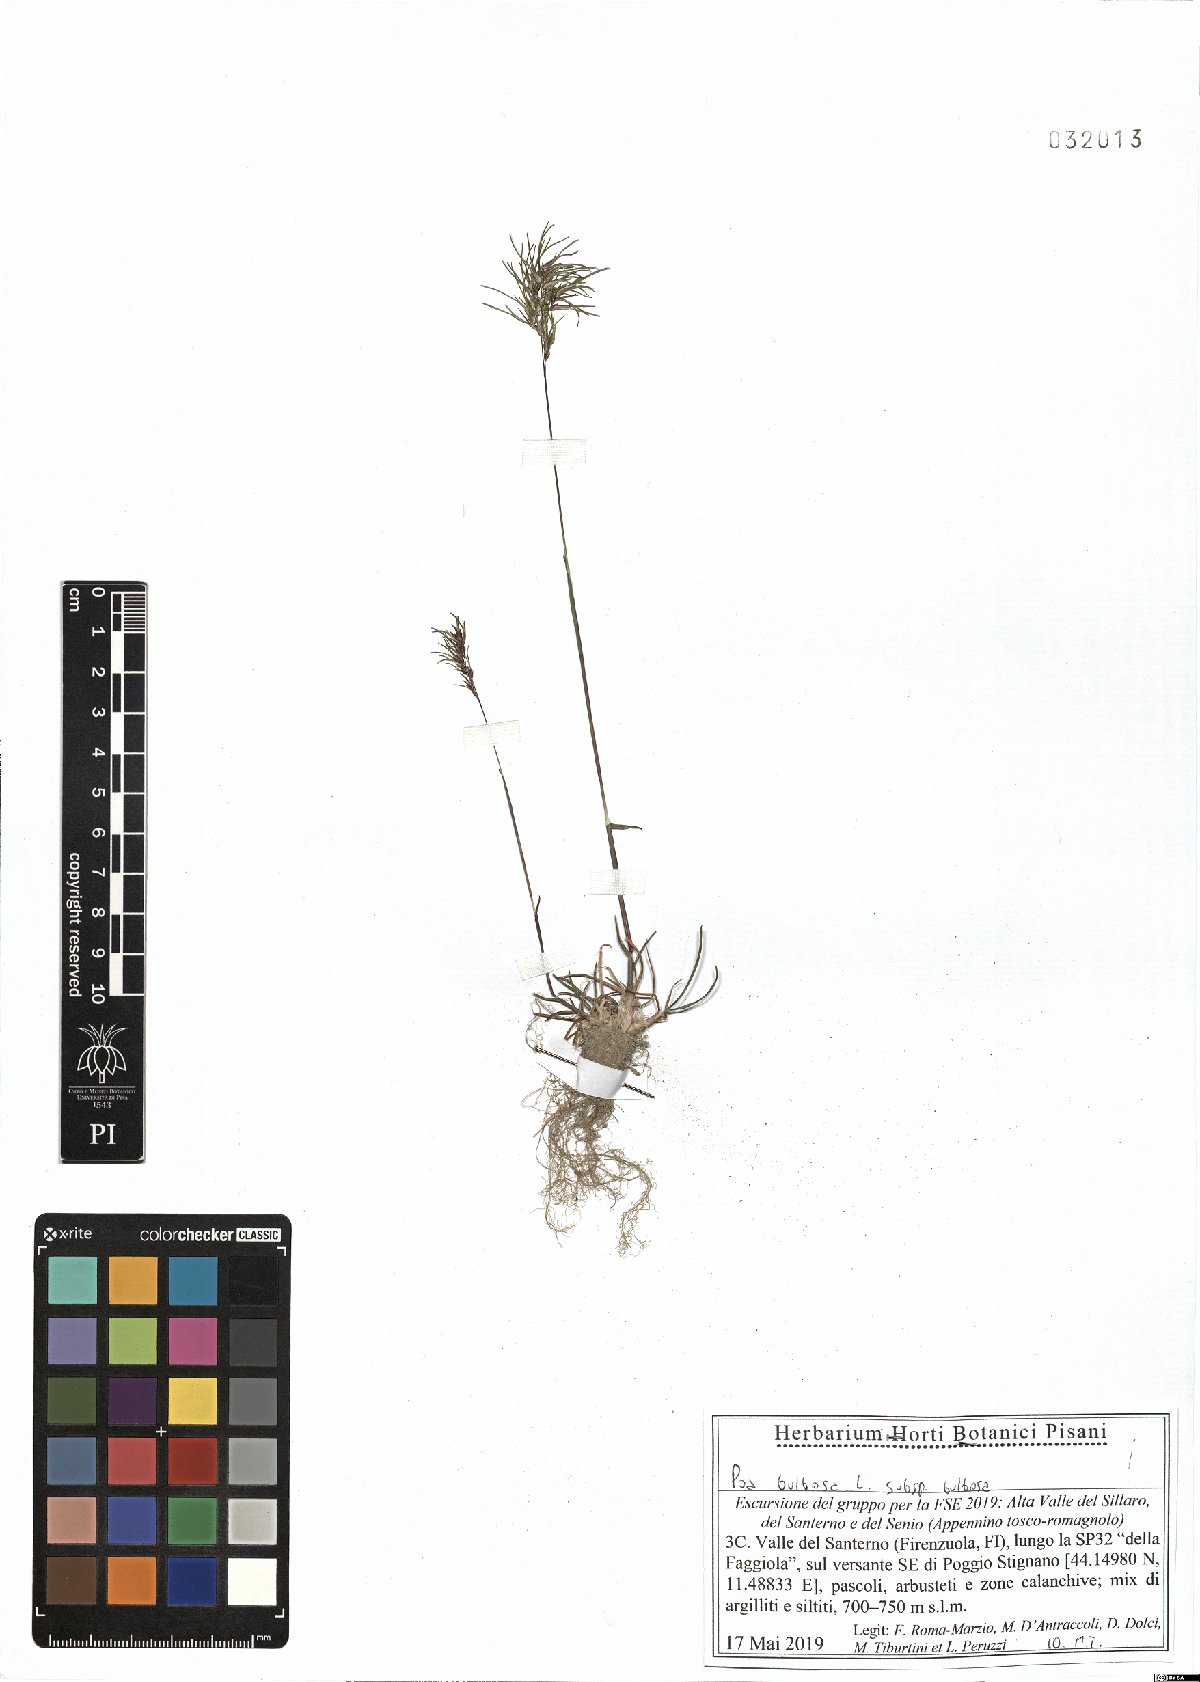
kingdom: Plantae
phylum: Tracheophyta
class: Liliopsida
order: Poales
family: Poaceae
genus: Poa
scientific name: Poa bulbosa
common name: Bulbous bluegrass
